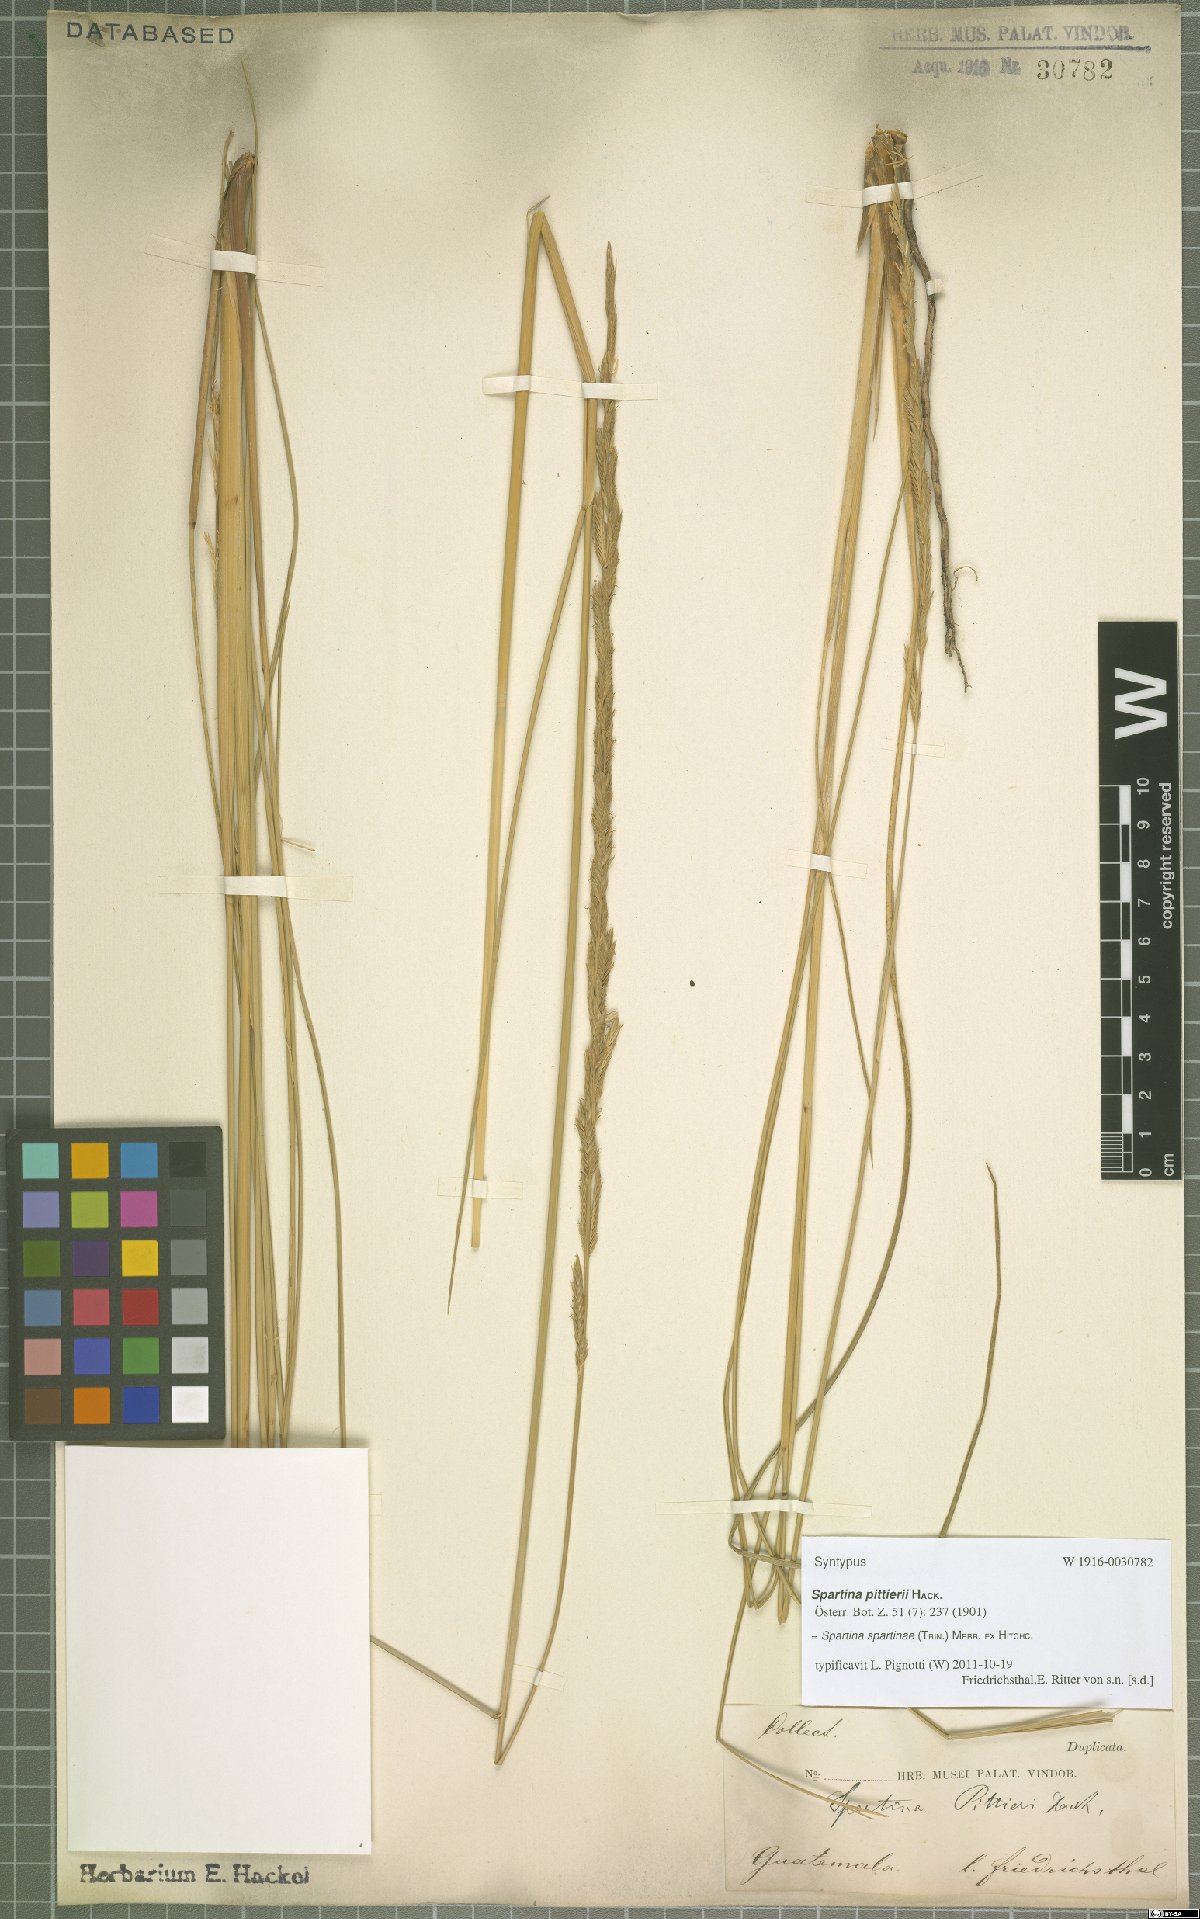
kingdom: Plantae
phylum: Tracheophyta
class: Liliopsida
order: Poales
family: Poaceae
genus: Sporobolus
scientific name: Sporobolus spartinae
